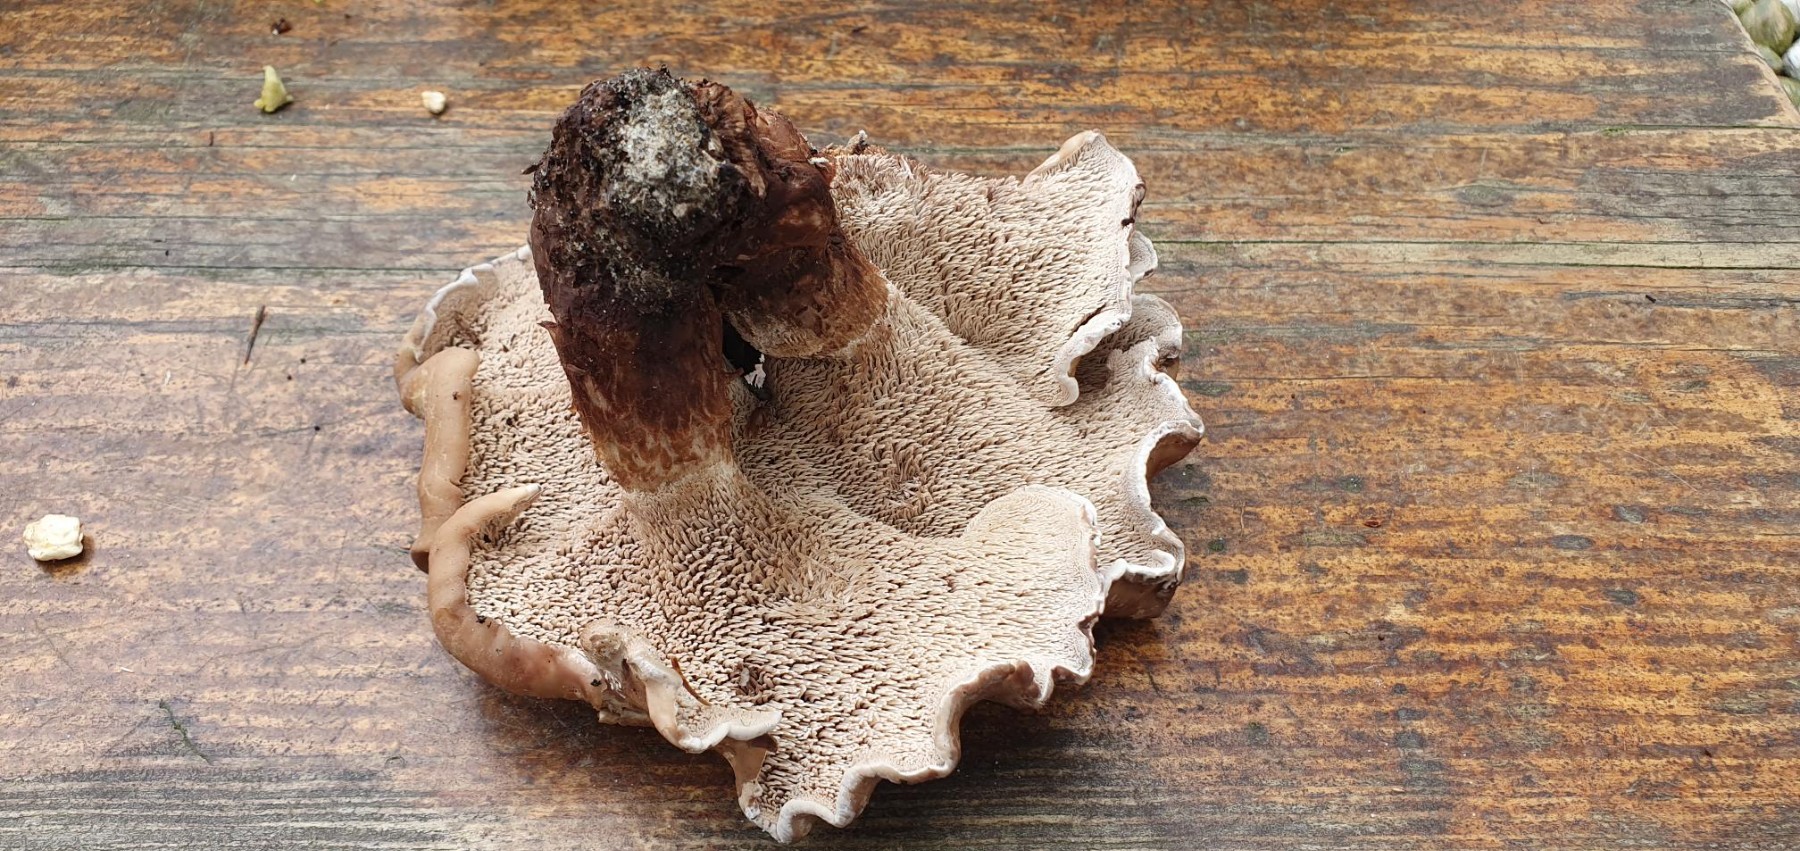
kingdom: Fungi
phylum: Basidiomycota
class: Agaricomycetes
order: Thelephorales
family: Thelephoraceae
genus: Phellodon
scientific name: Phellodon violascens
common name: violetbrun duftpigsvamp
